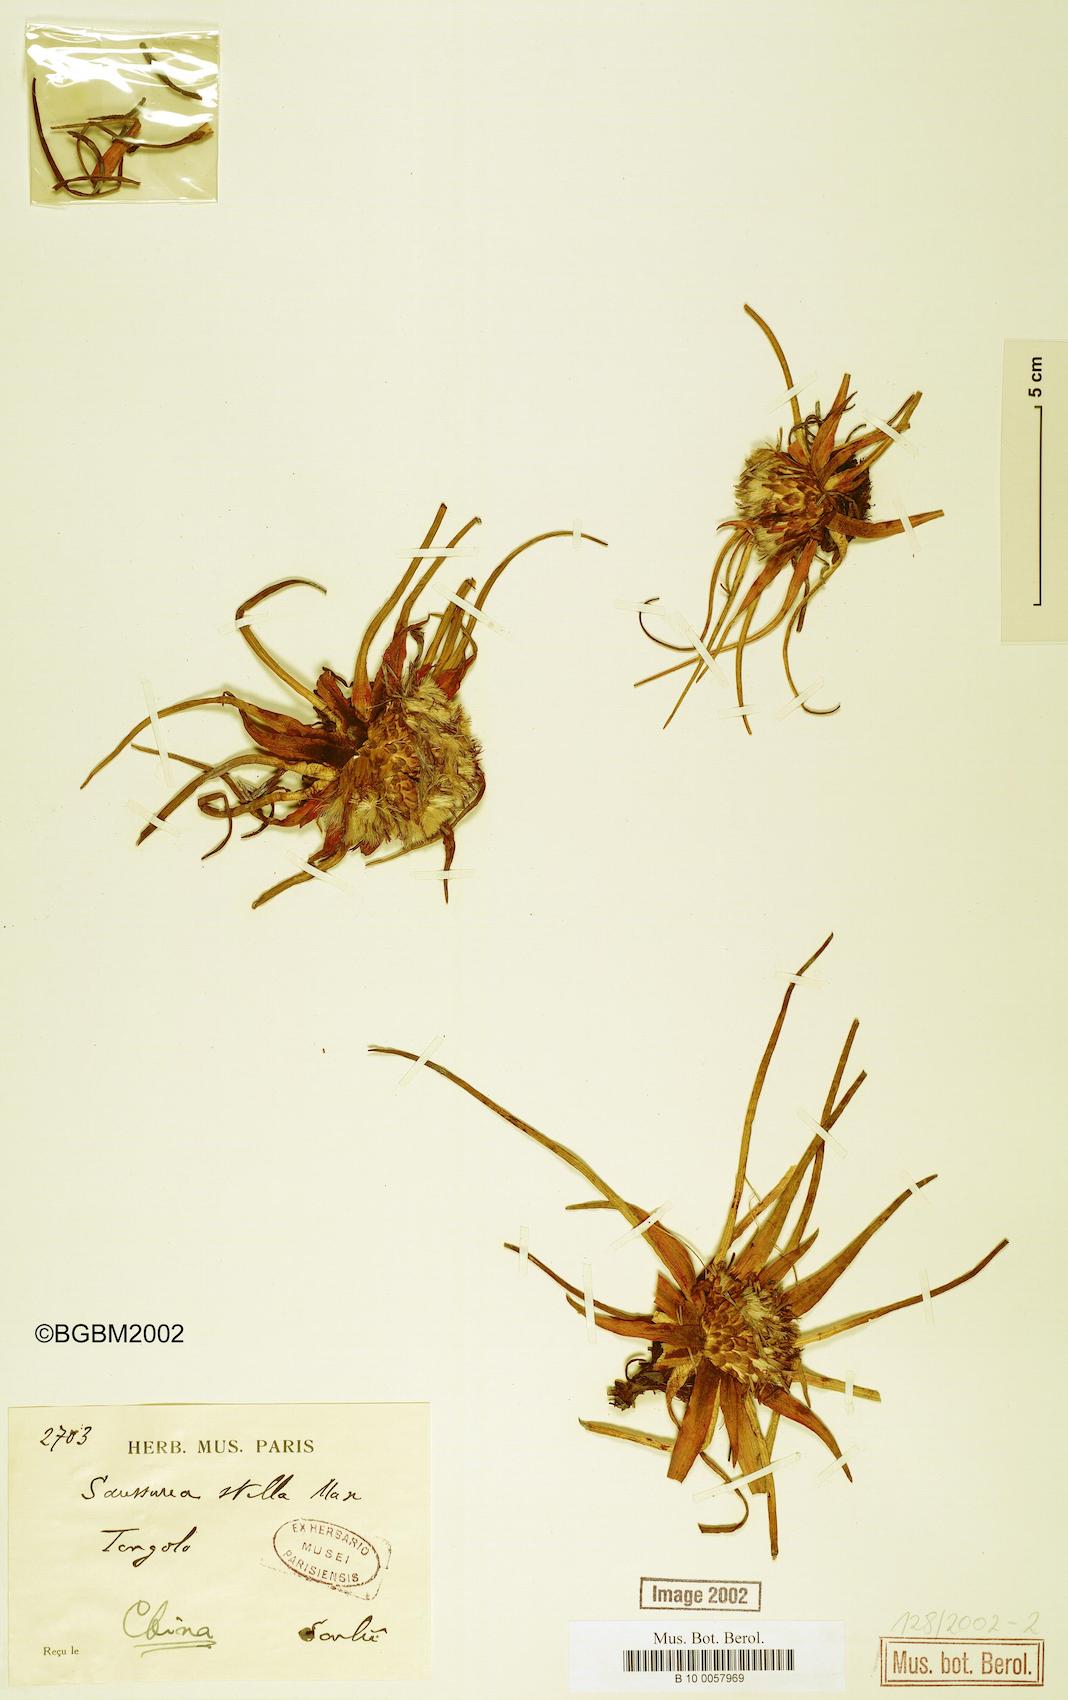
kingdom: Plantae
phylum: Tracheophyta
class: Magnoliopsida
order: Asterales
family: Asteraceae
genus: Saussurea
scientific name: Saussurea stella
